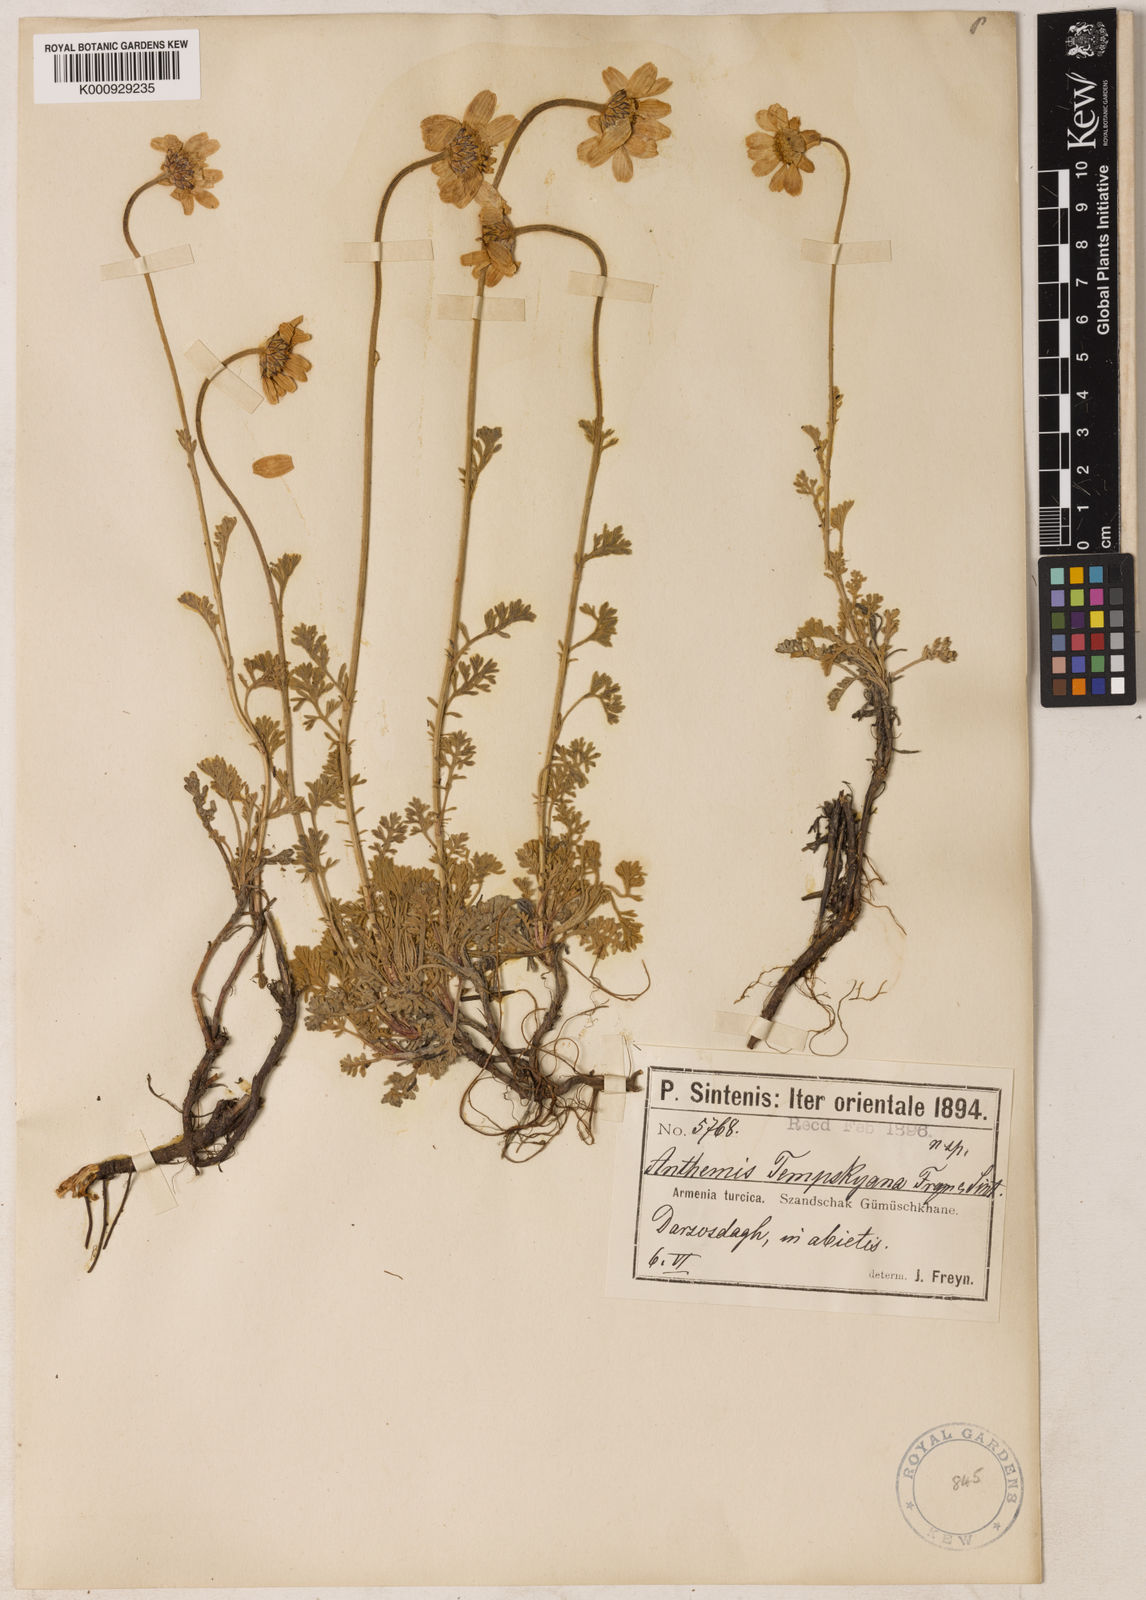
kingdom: Plantae
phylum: Tracheophyta
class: Magnoliopsida
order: Asterales
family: Asteraceae
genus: Anthemis
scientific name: Anthemis cretica
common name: Mountain dog-daisy
